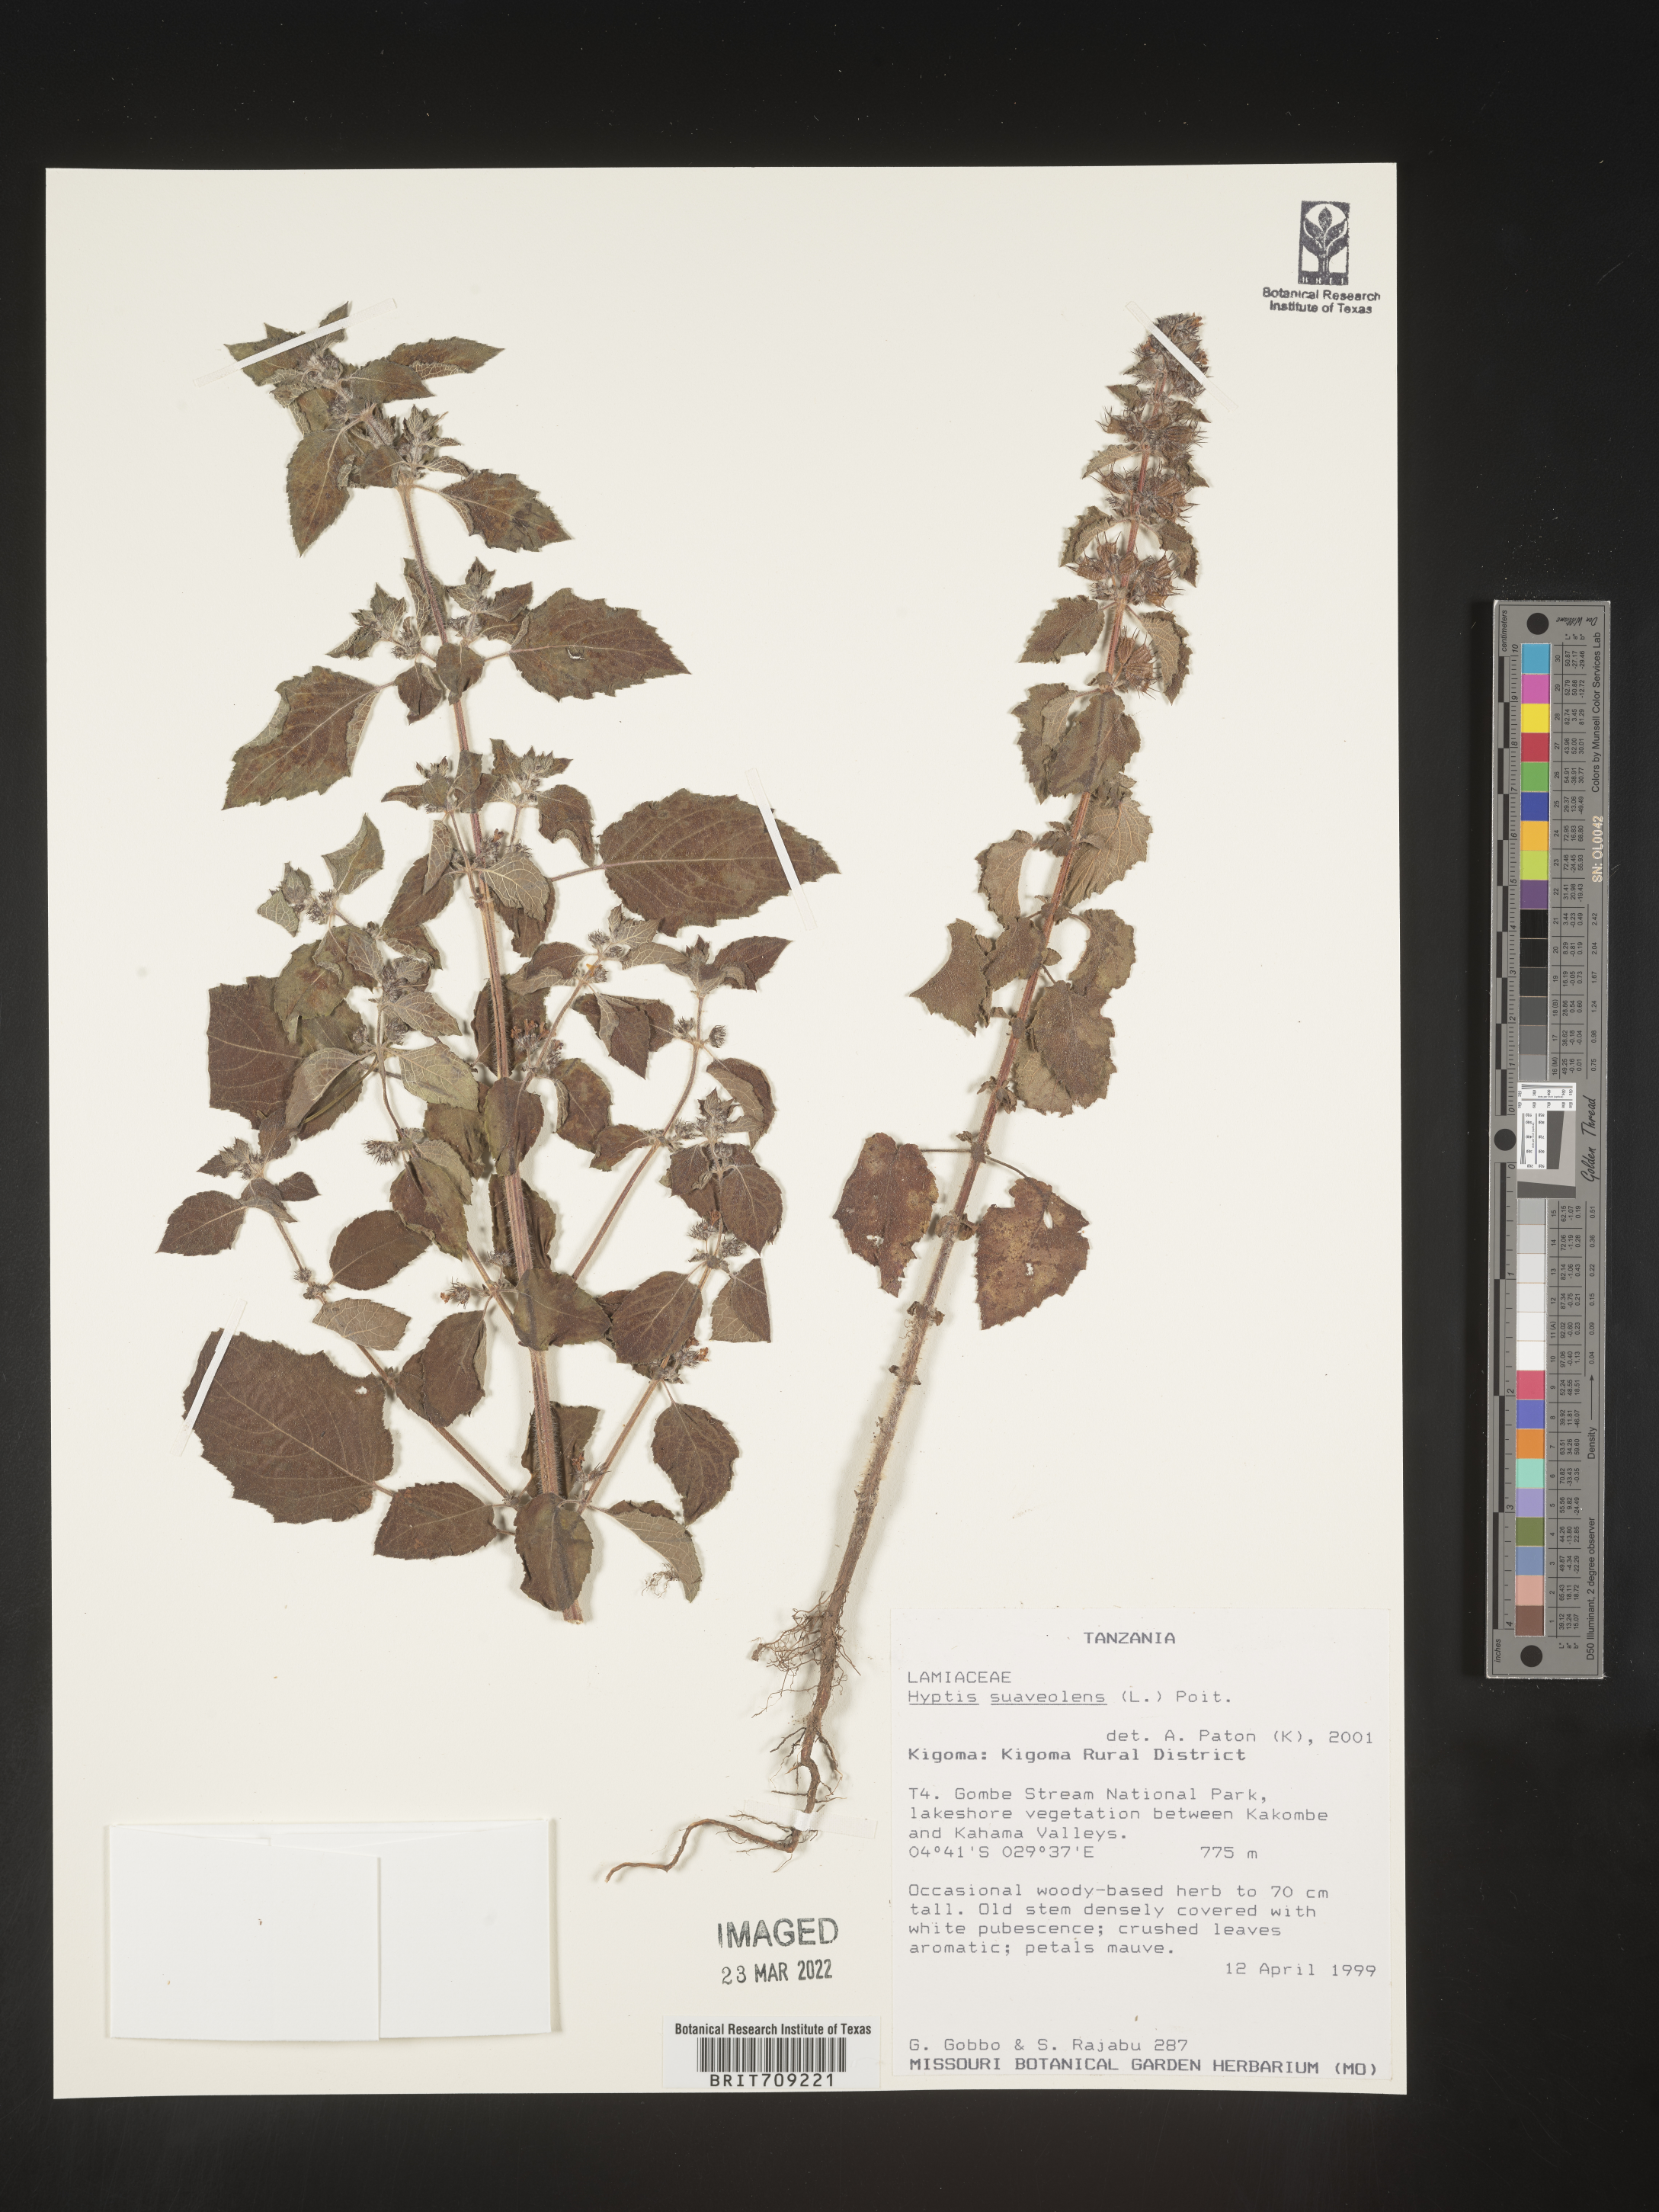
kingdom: Plantae
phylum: Tracheophyta
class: Magnoliopsida
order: Lamiales
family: Lamiaceae
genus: Hyptis
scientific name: Hyptis
